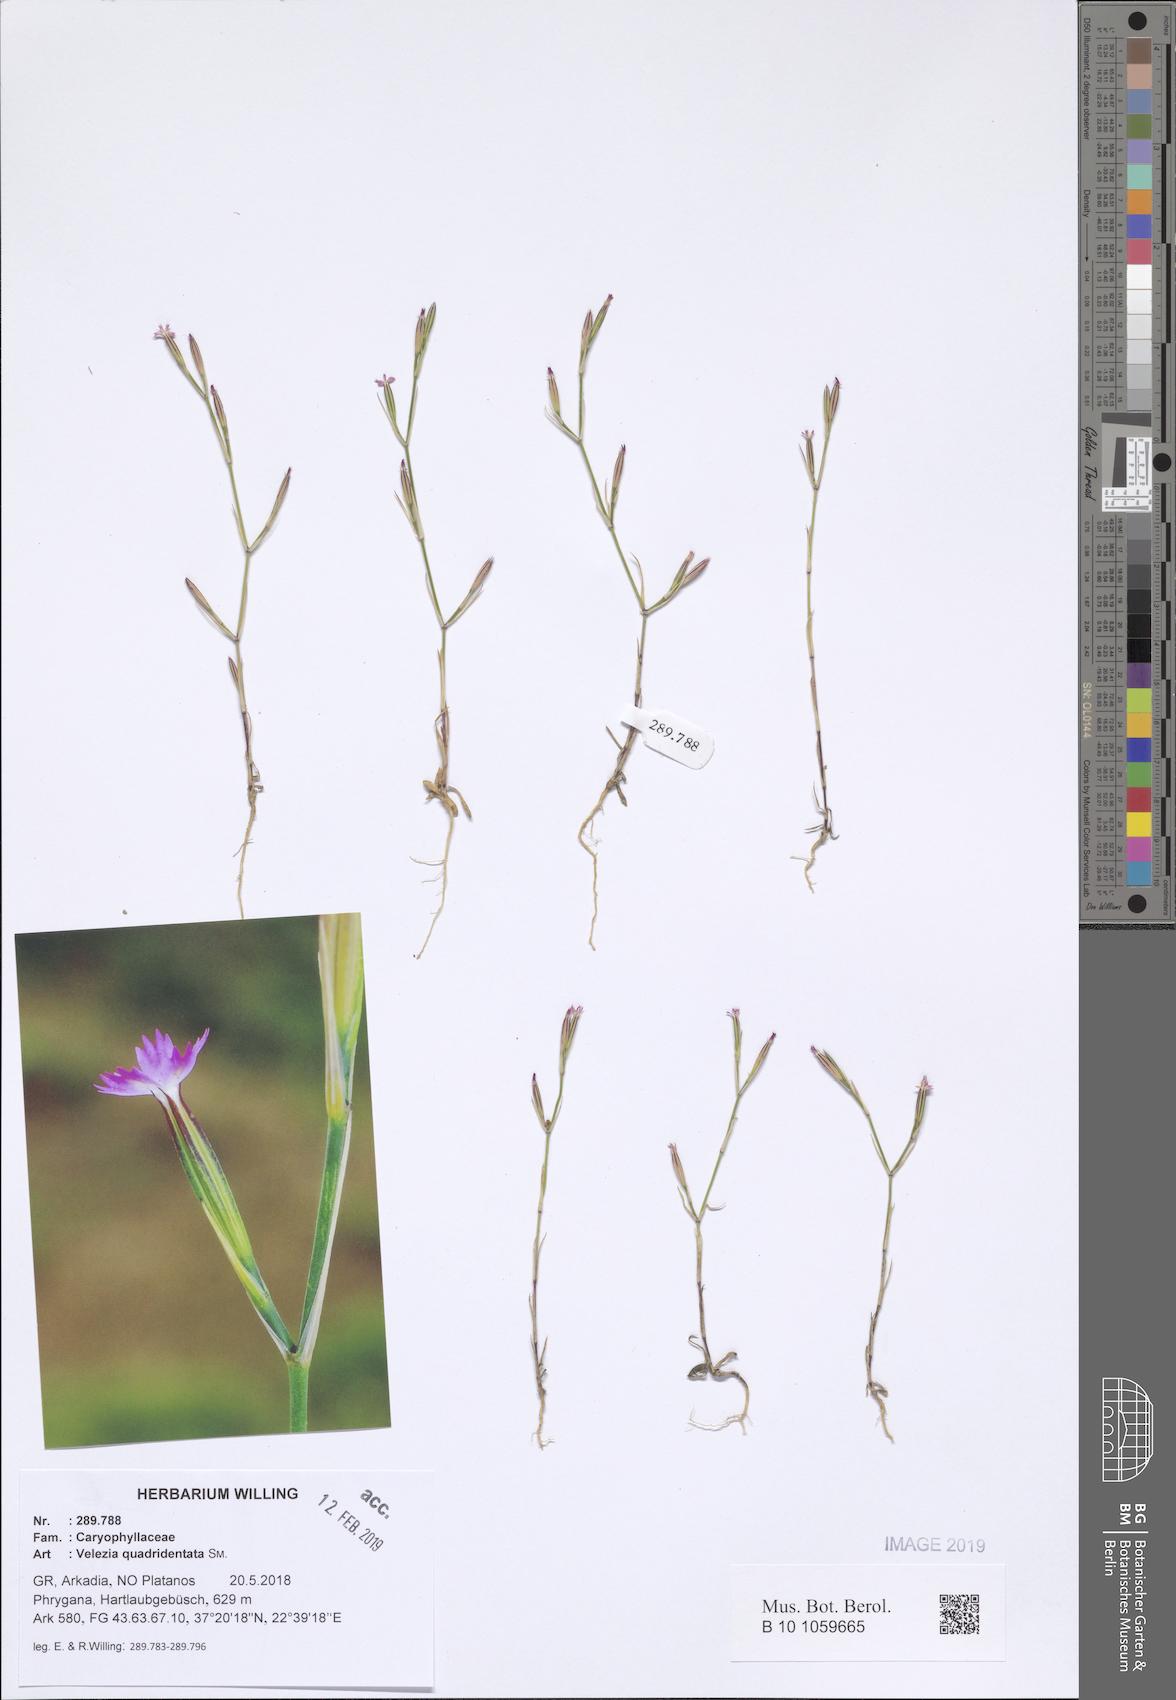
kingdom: Plantae
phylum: Tracheophyta
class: Magnoliopsida
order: Caryophyllales
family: Caryophyllaceae
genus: Dianthus
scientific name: Dianthus quadridentatus
